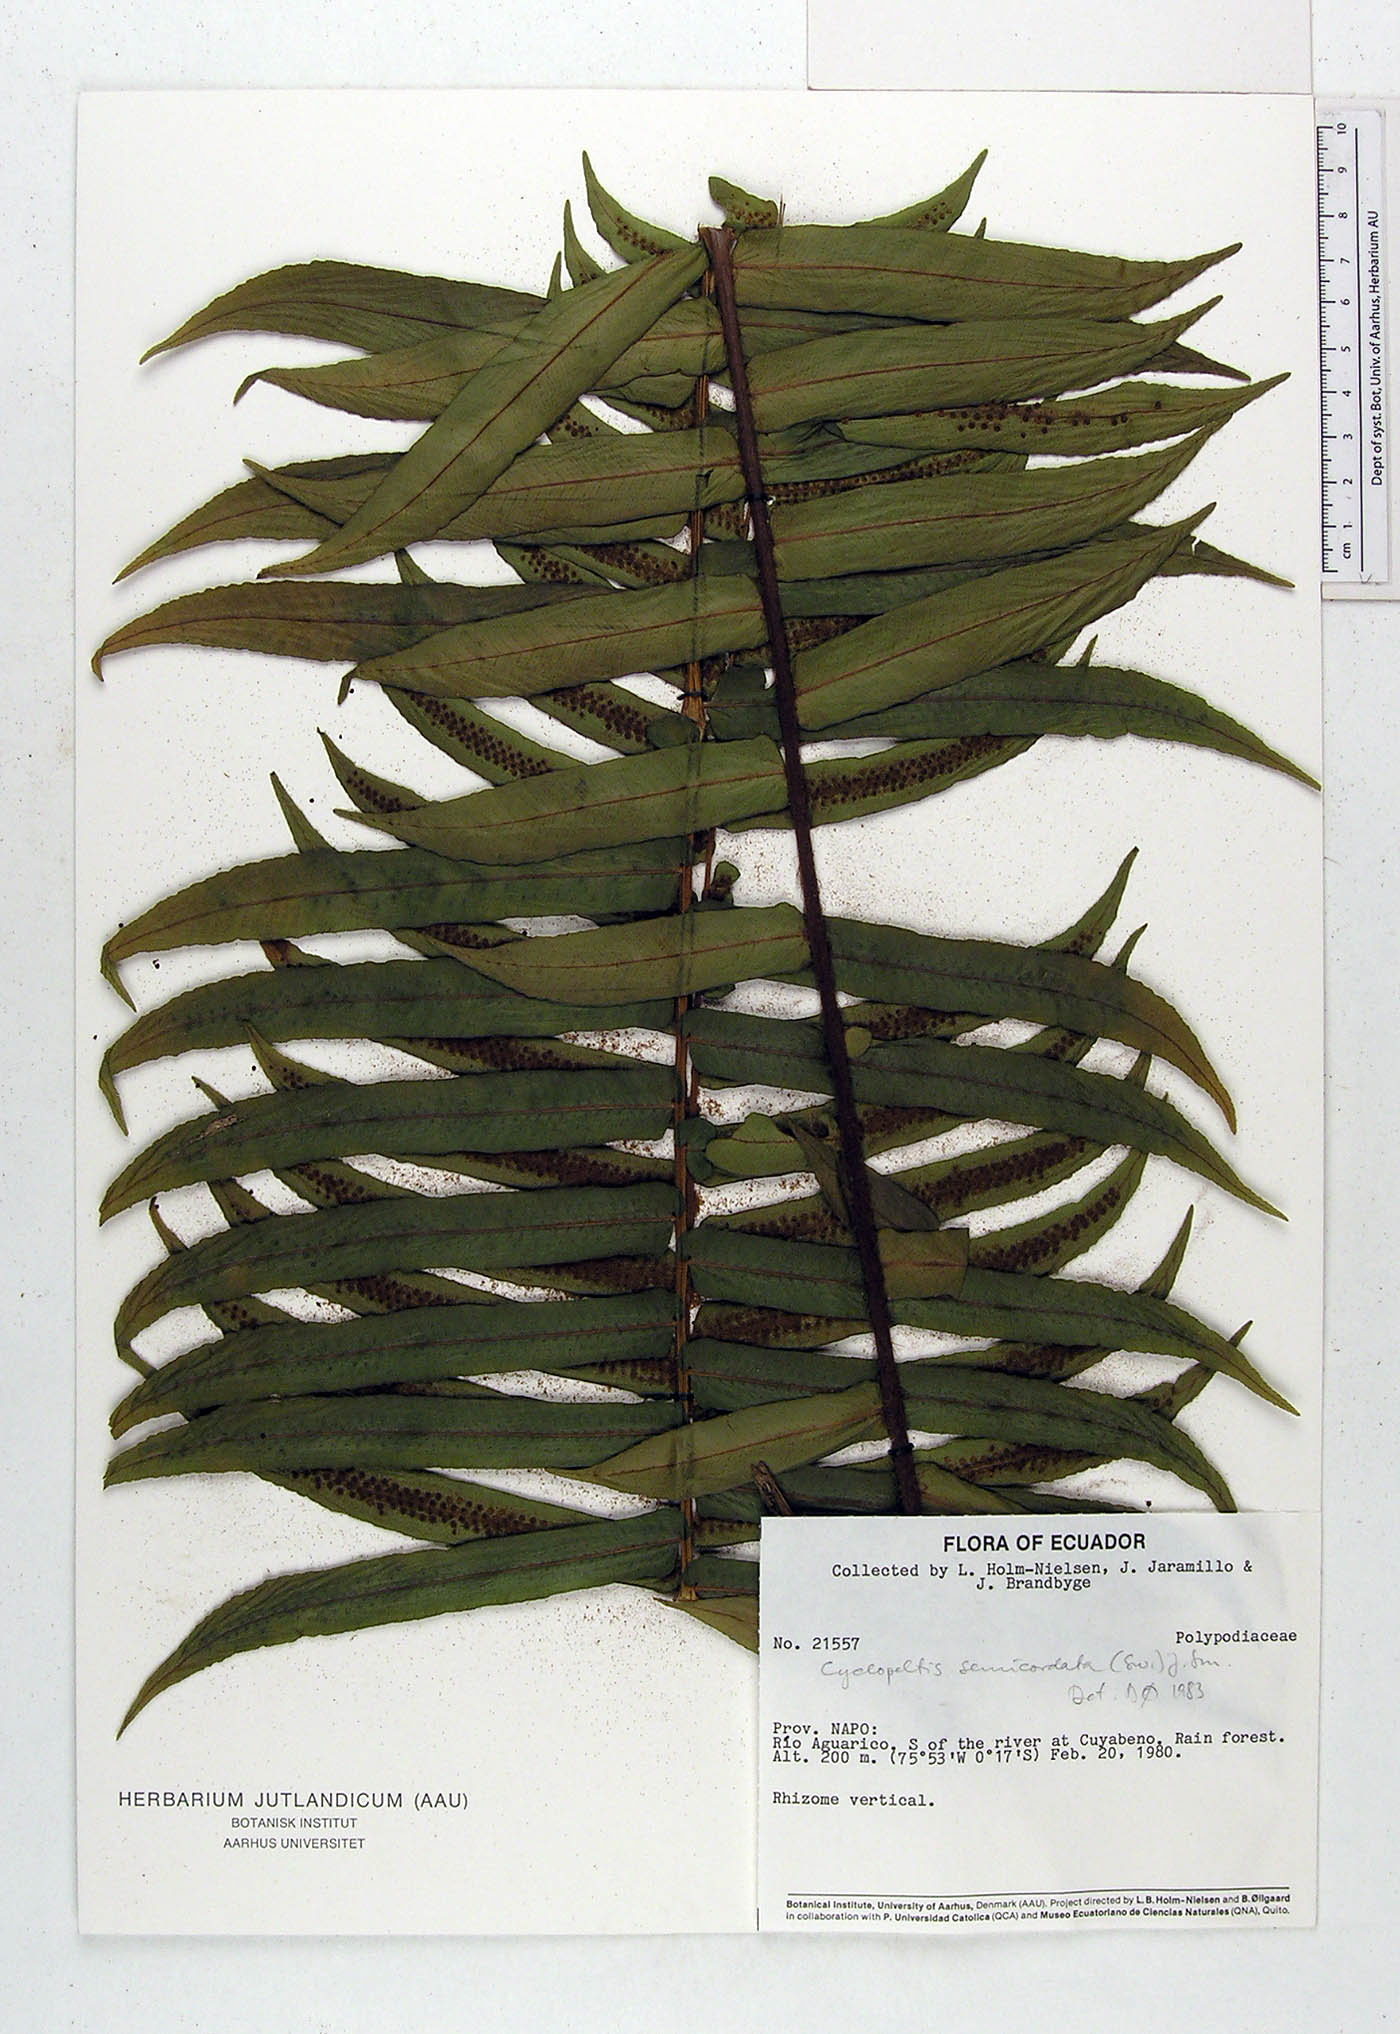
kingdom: Plantae
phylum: Tracheophyta
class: Polypodiopsida
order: Polypodiales
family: Lomariopsidaceae
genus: Cyclopeltis
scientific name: Cyclopeltis semicordata
